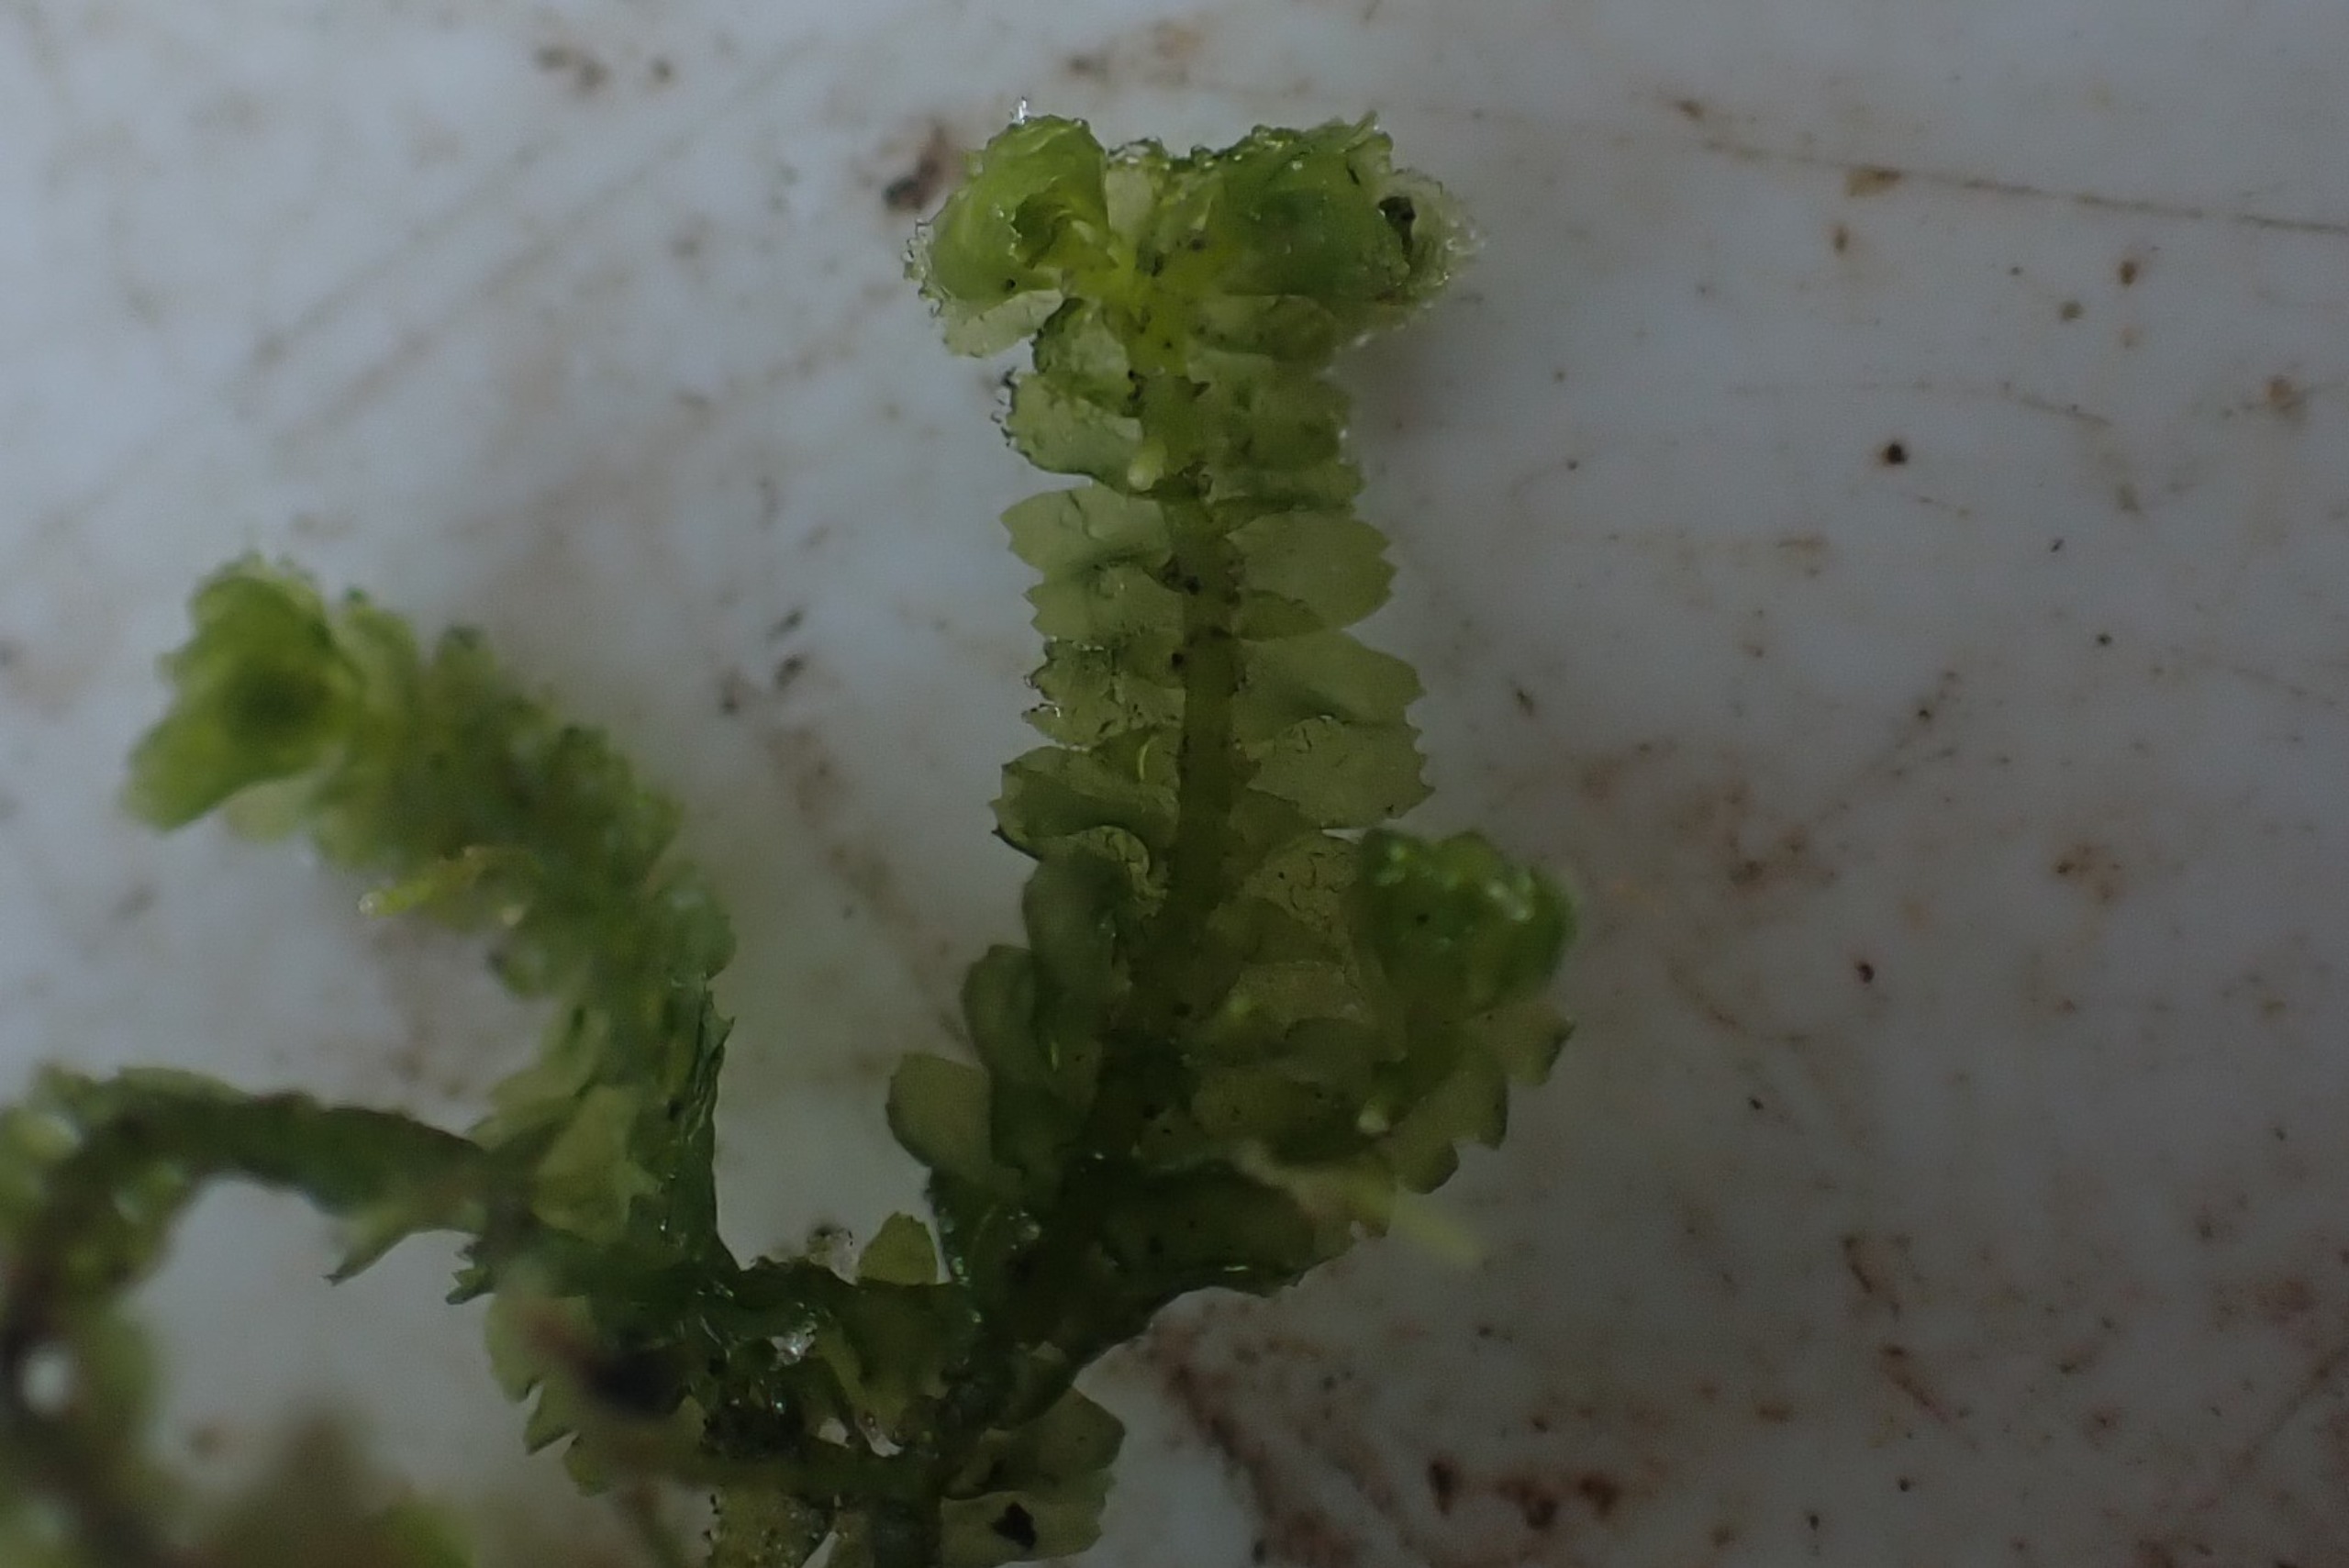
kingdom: Plantae
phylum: Marchantiophyta
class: Jungermanniopsida
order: Jungermanniales
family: Lepidoziaceae
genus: Bazzania
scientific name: Bazzania trilobata
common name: Stor styltemos
